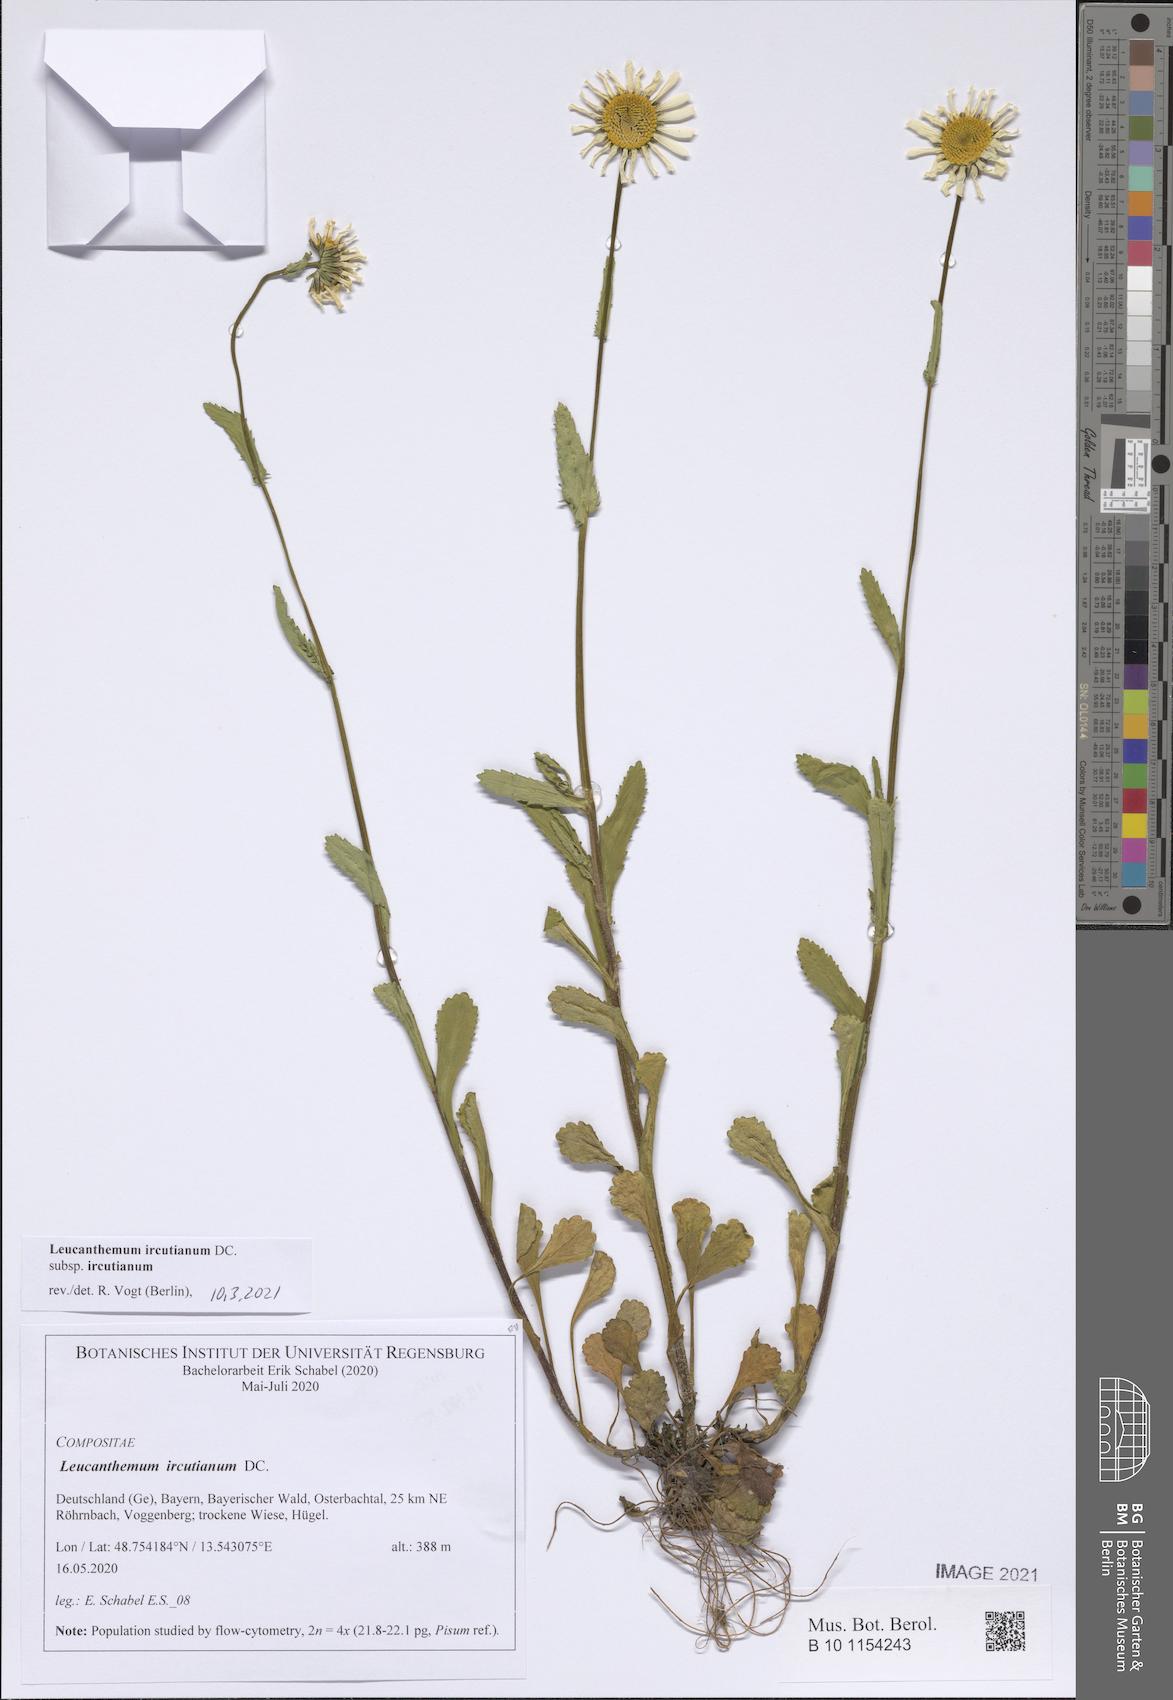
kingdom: Plantae
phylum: Tracheophyta
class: Magnoliopsida
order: Asterales
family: Asteraceae
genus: Leucanthemum
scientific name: Leucanthemum ircutianum
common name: Daisy
